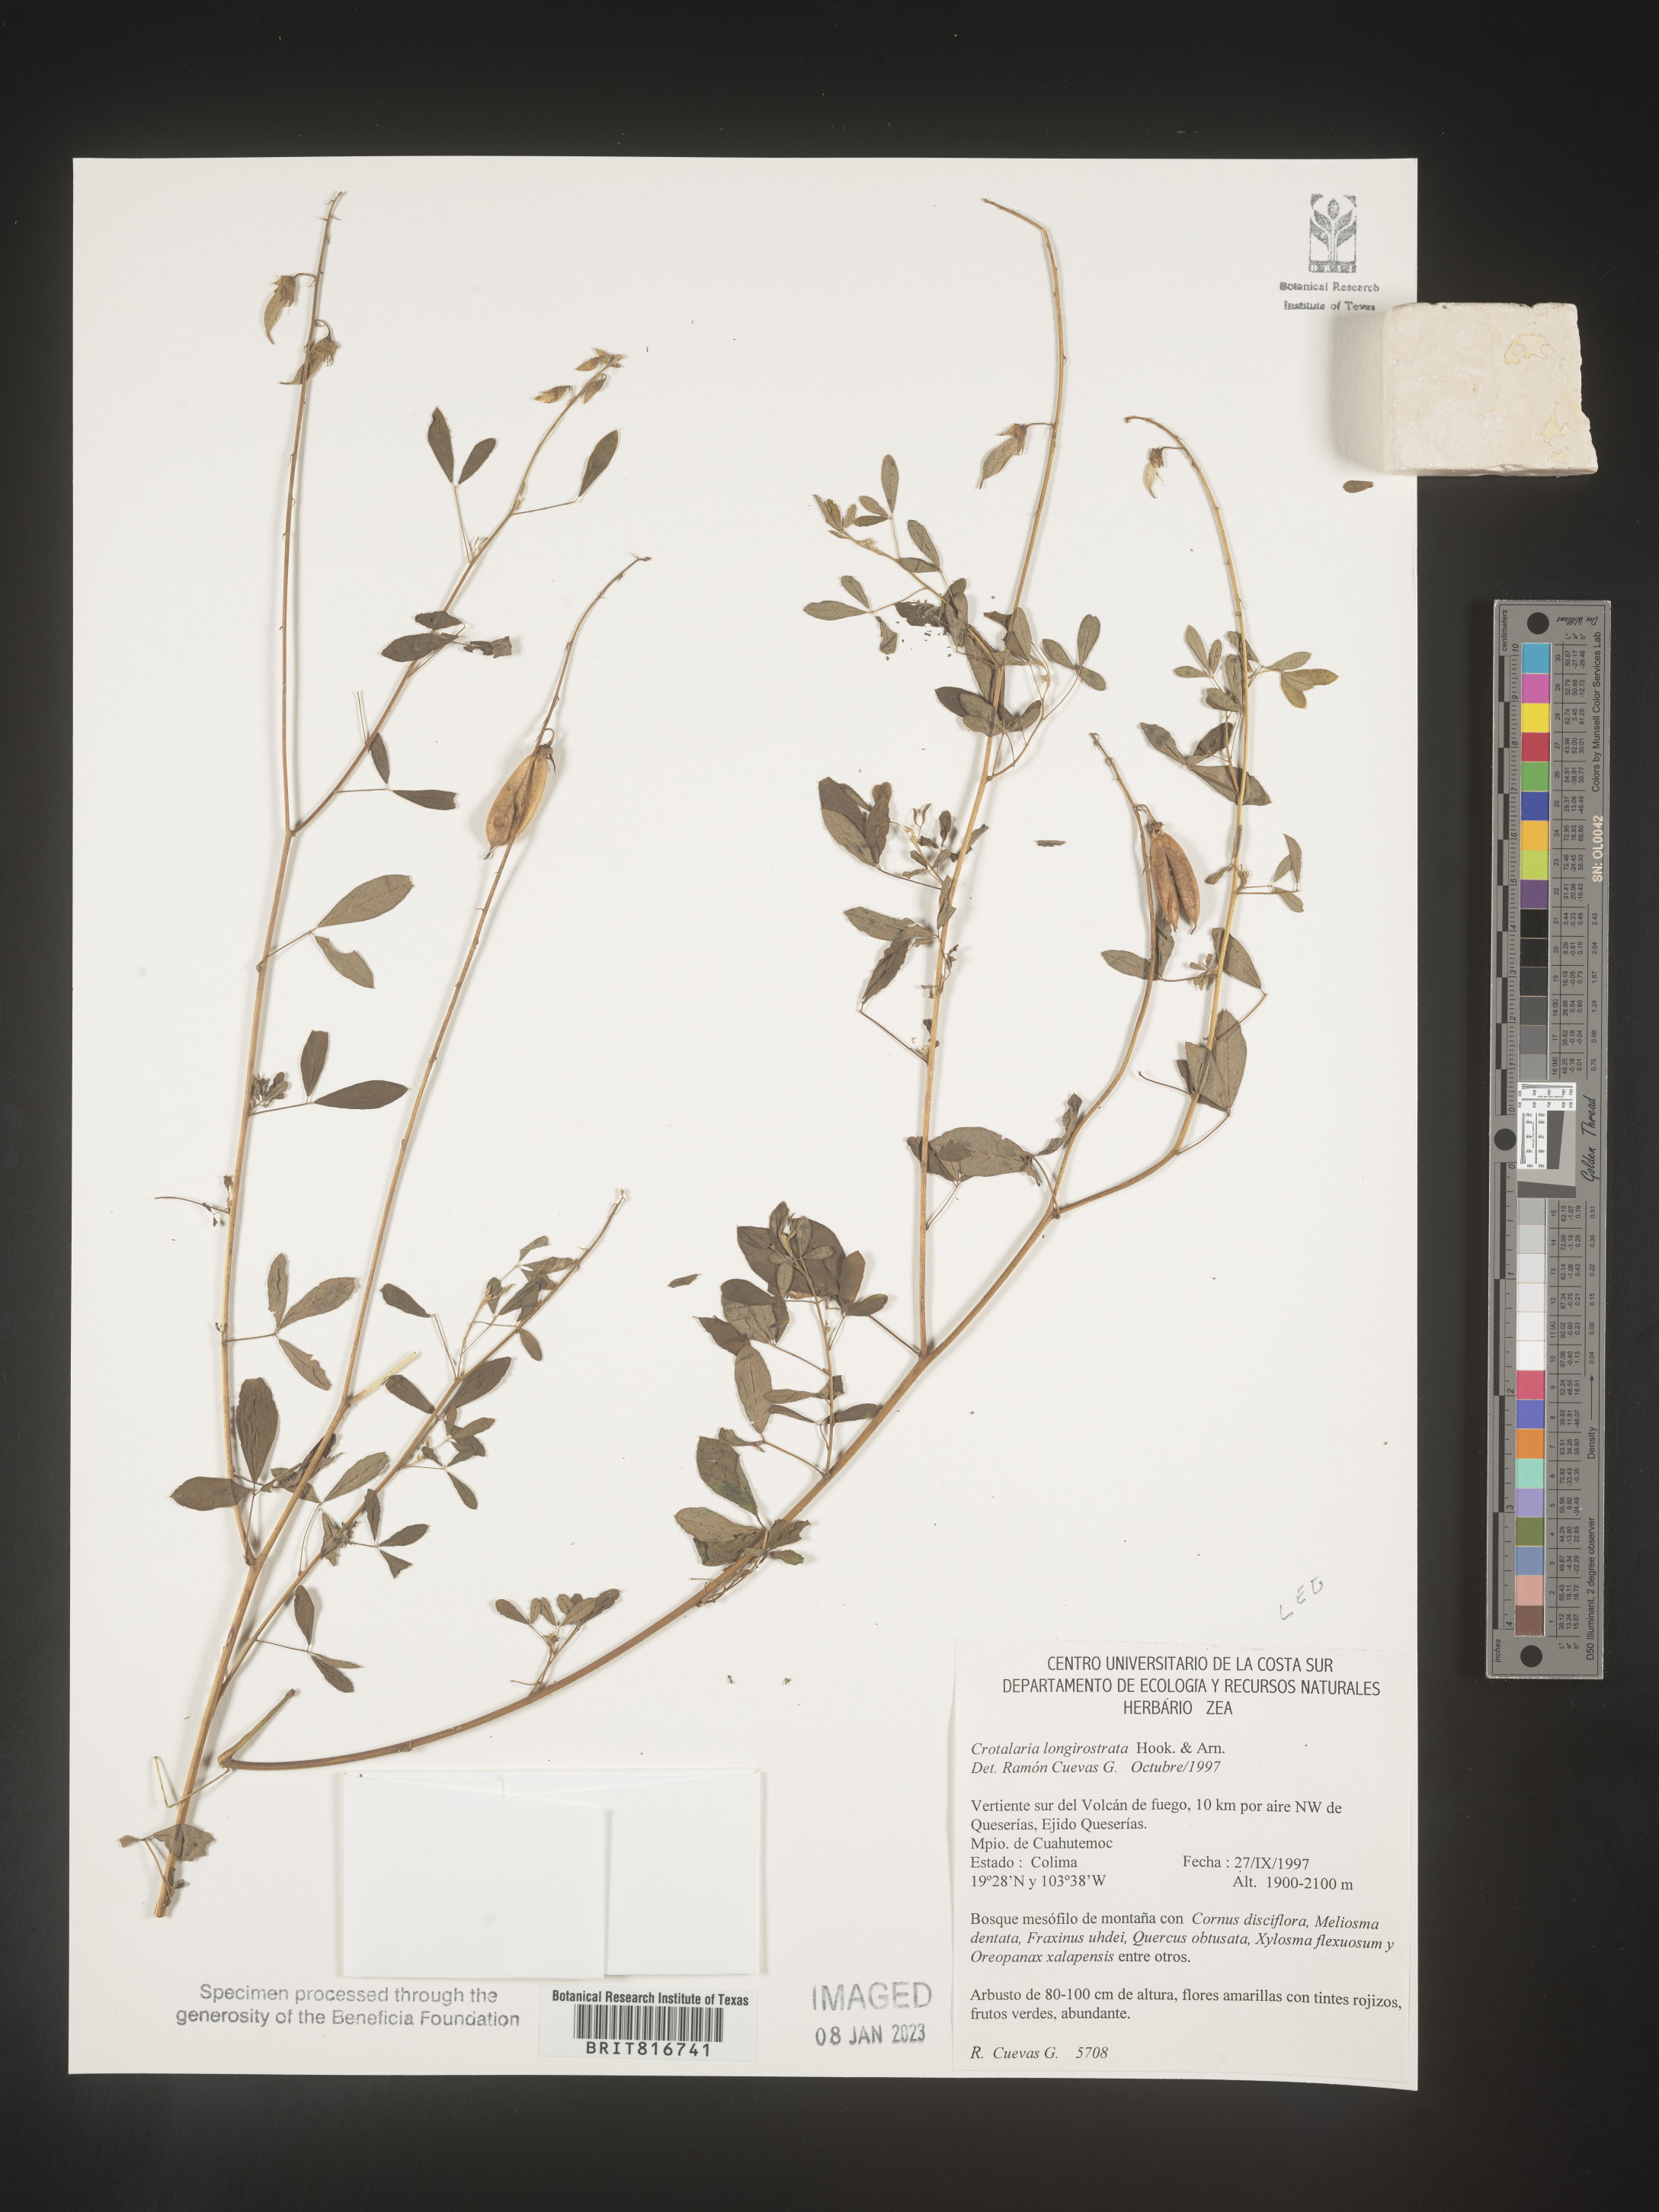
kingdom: Plantae
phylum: Tracheophyta
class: Magnoliopsida
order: Fabales
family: Fabaceae
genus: Crotalaria
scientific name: Crotalaria
